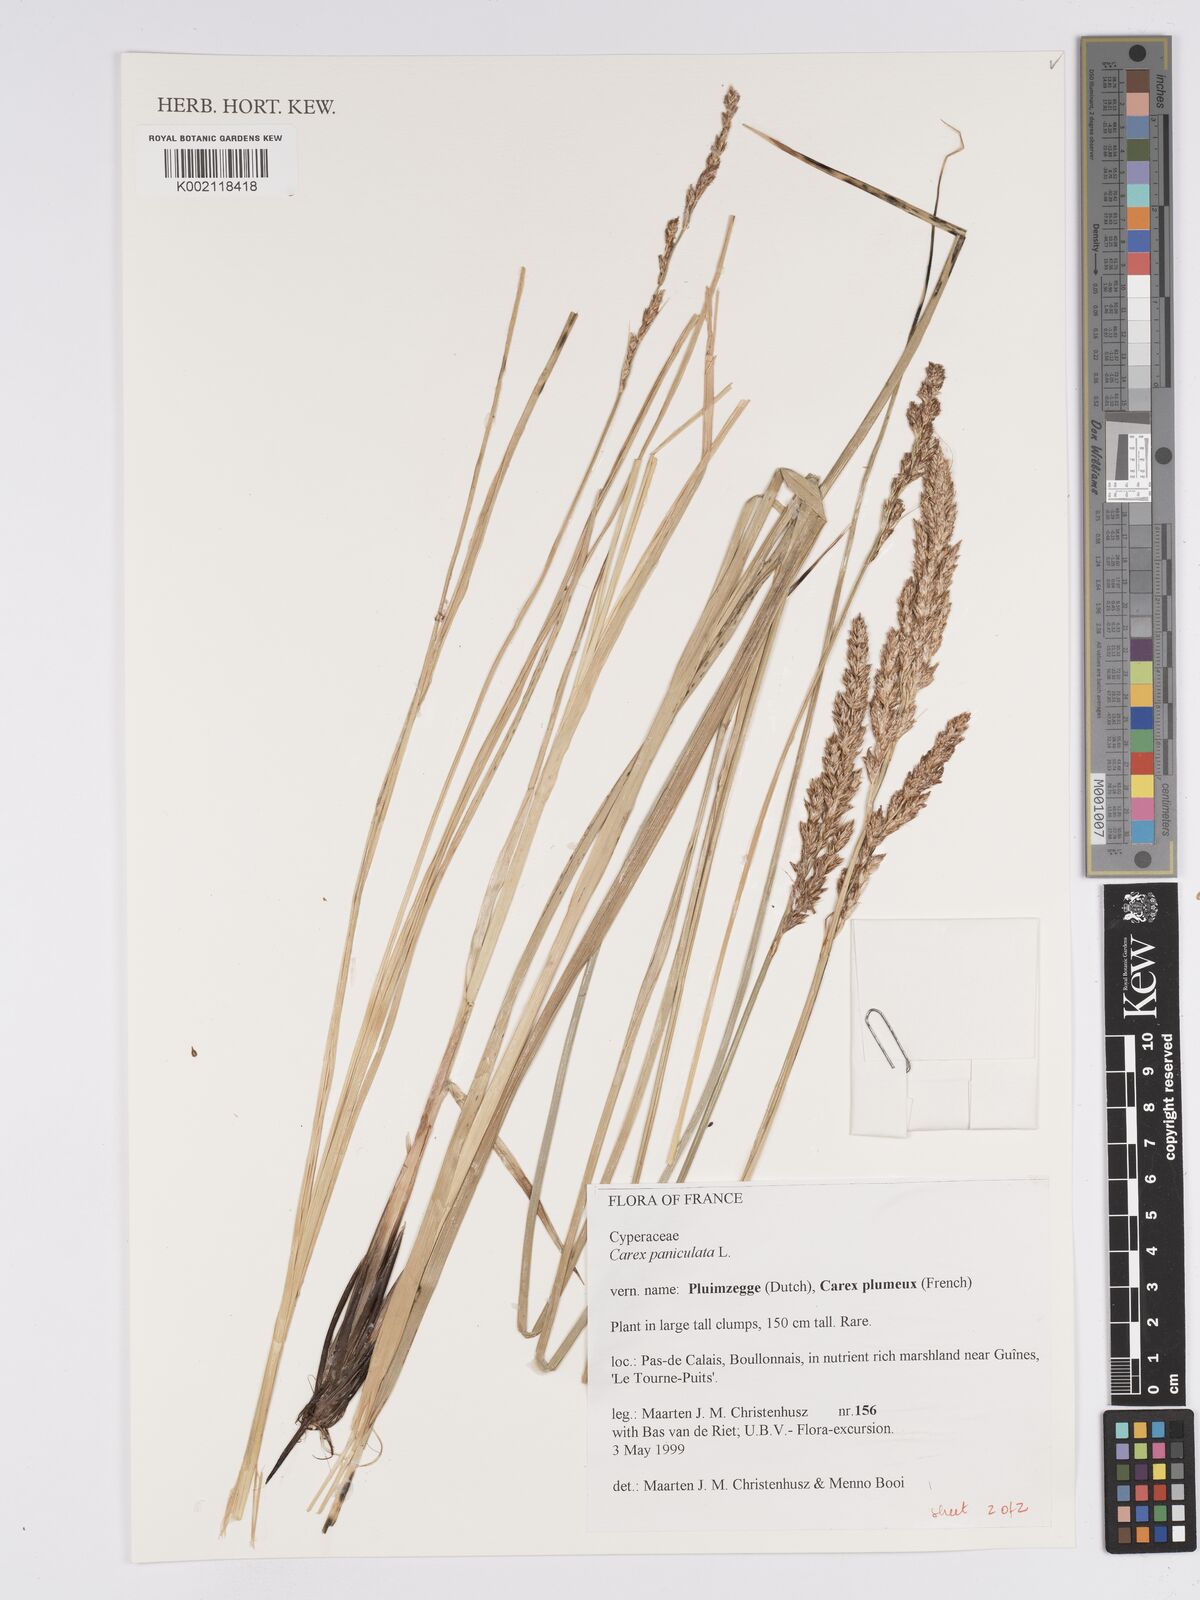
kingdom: Plantae
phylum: Tracheophyta
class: Liliopsida
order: Poales
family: Cyperaceae
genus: Carex
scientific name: Carex paniculata
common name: Greater tussock-sedge
